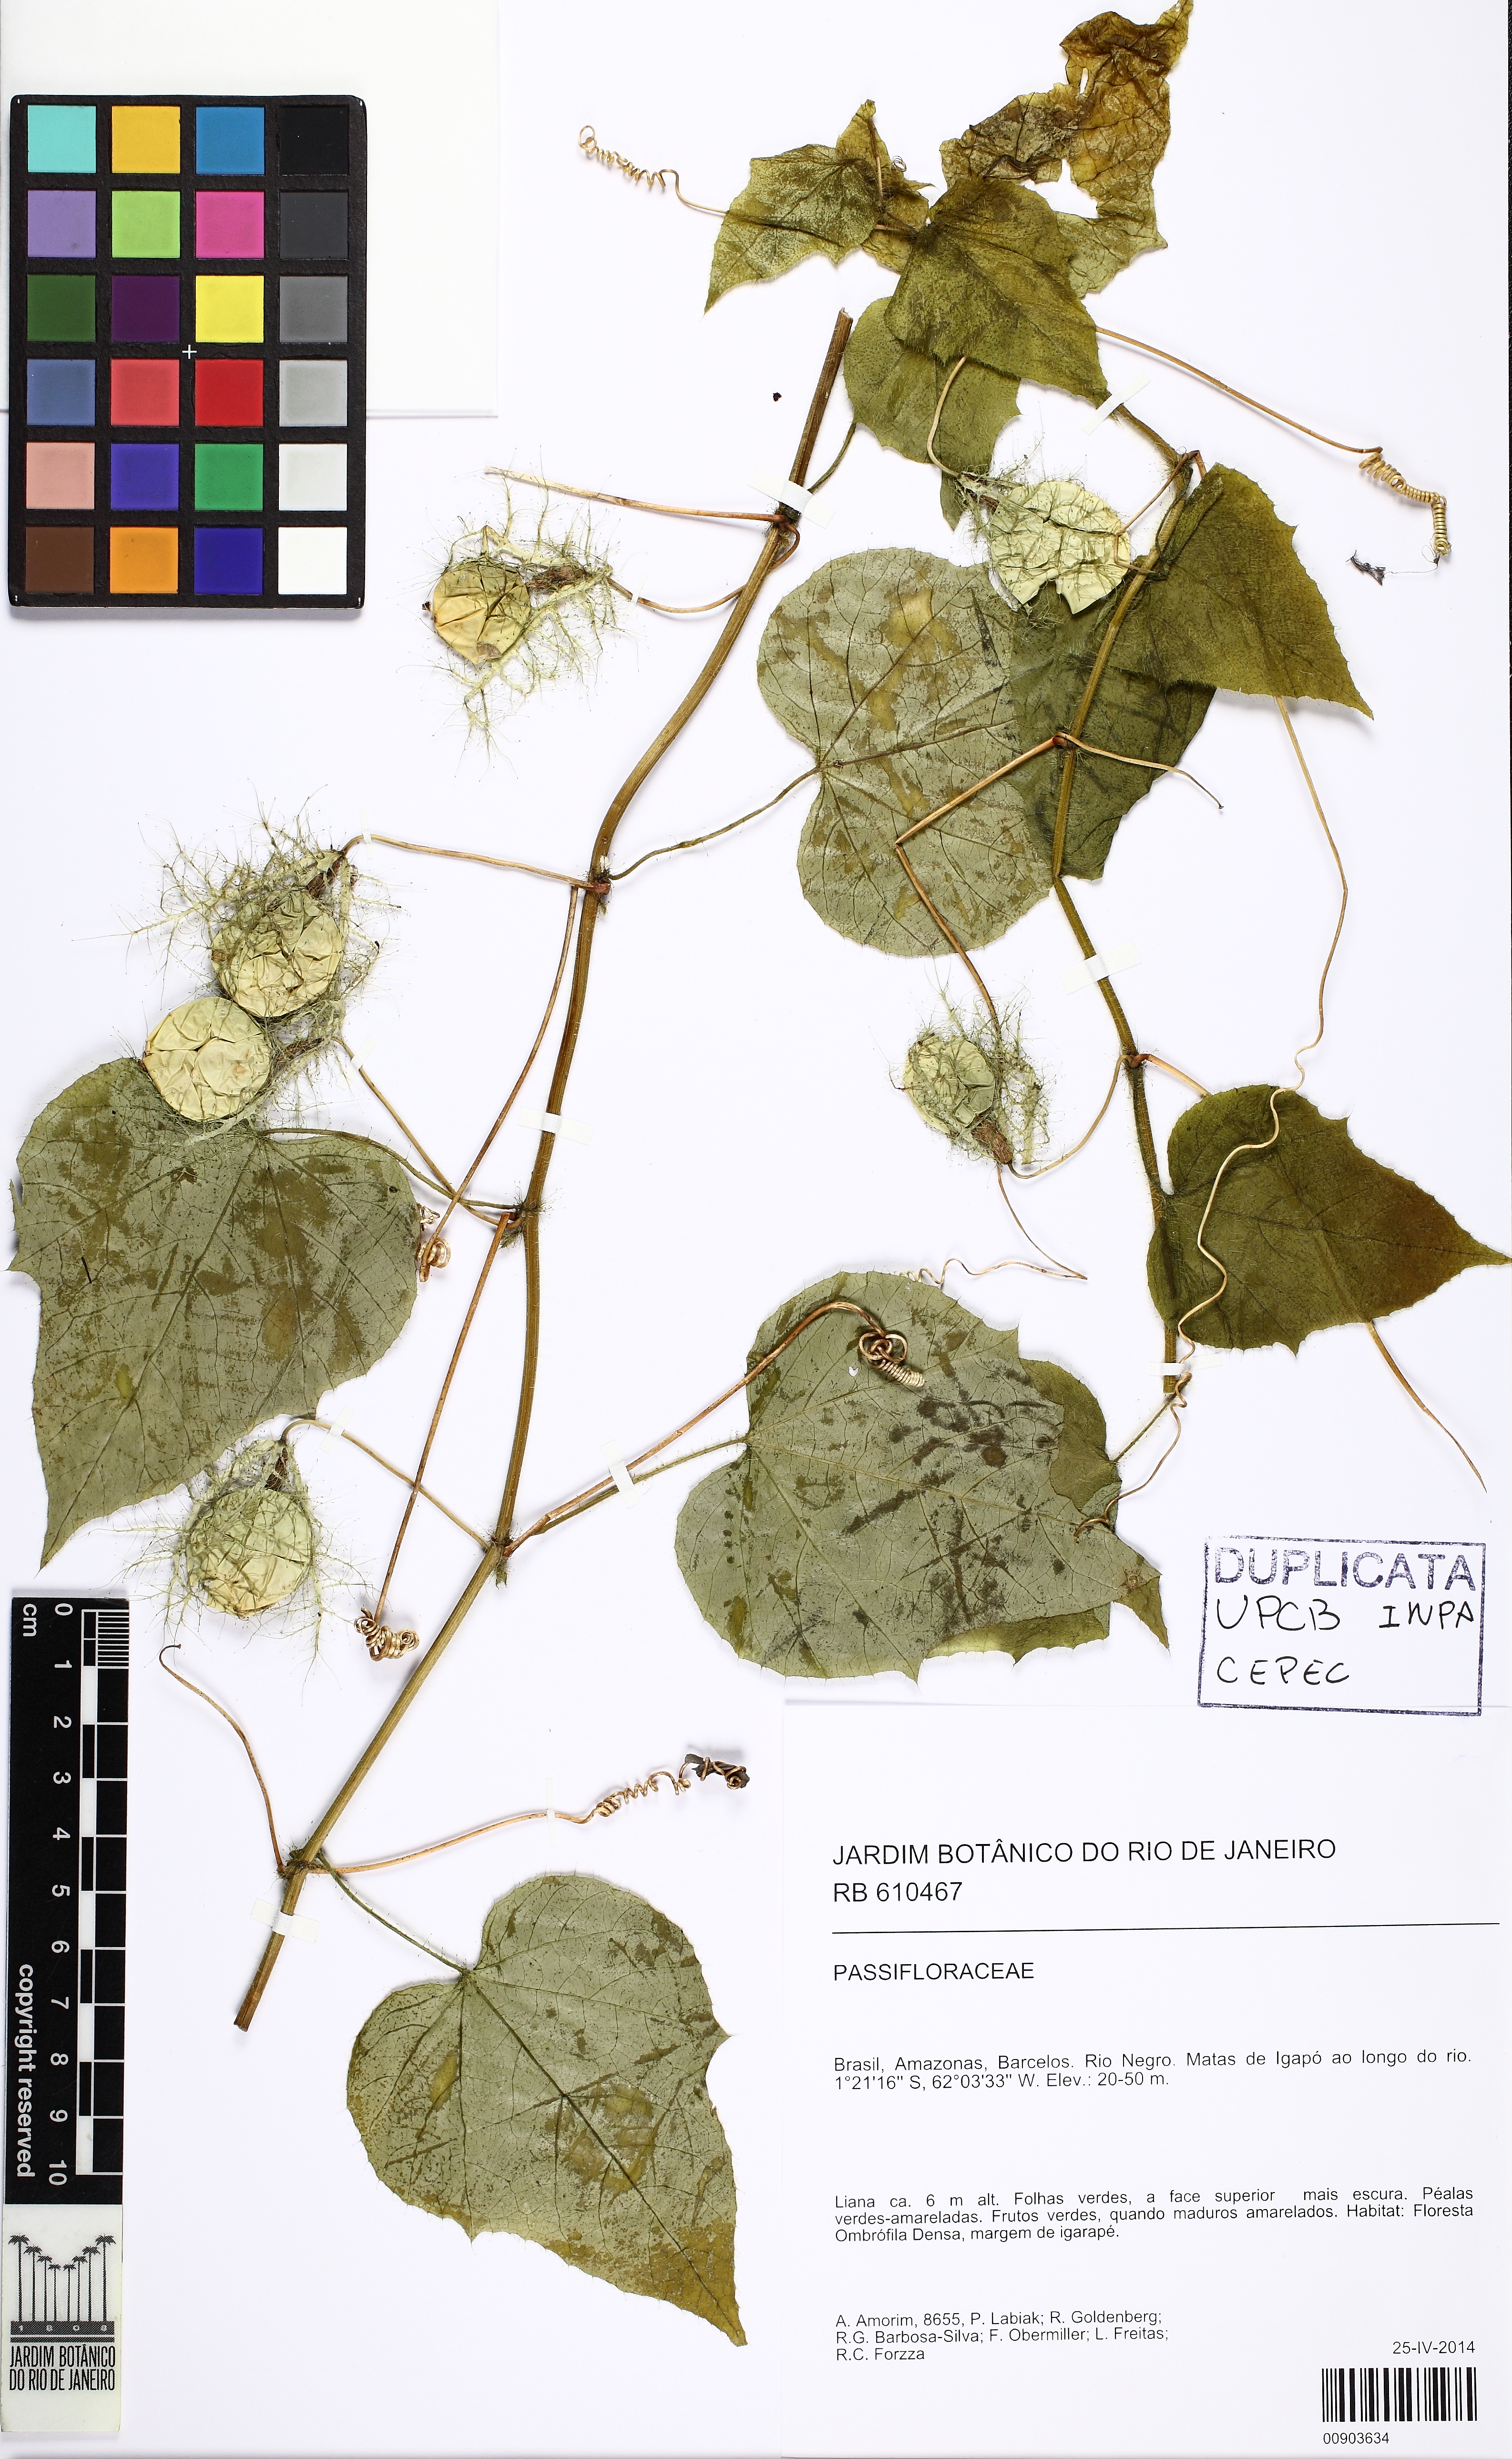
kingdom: Plantae
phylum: Tracheophyta
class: Magnoliopsida
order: Malpighiales
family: Passifloraceae
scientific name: Passifloraceae
